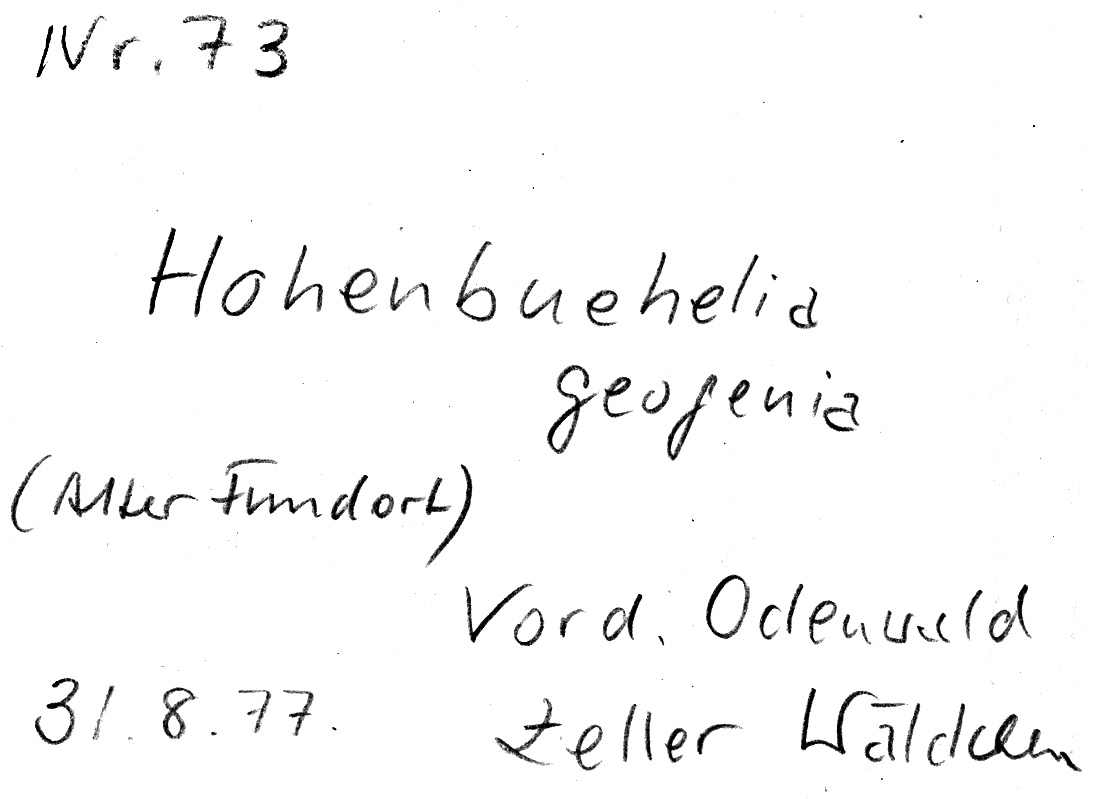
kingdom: Fungi
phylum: Basidiomycota
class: Agaricomycetes
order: Agaricales
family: Pleurotaceae
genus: Hohenbuehelia
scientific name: Hohenbuehelia tremula
